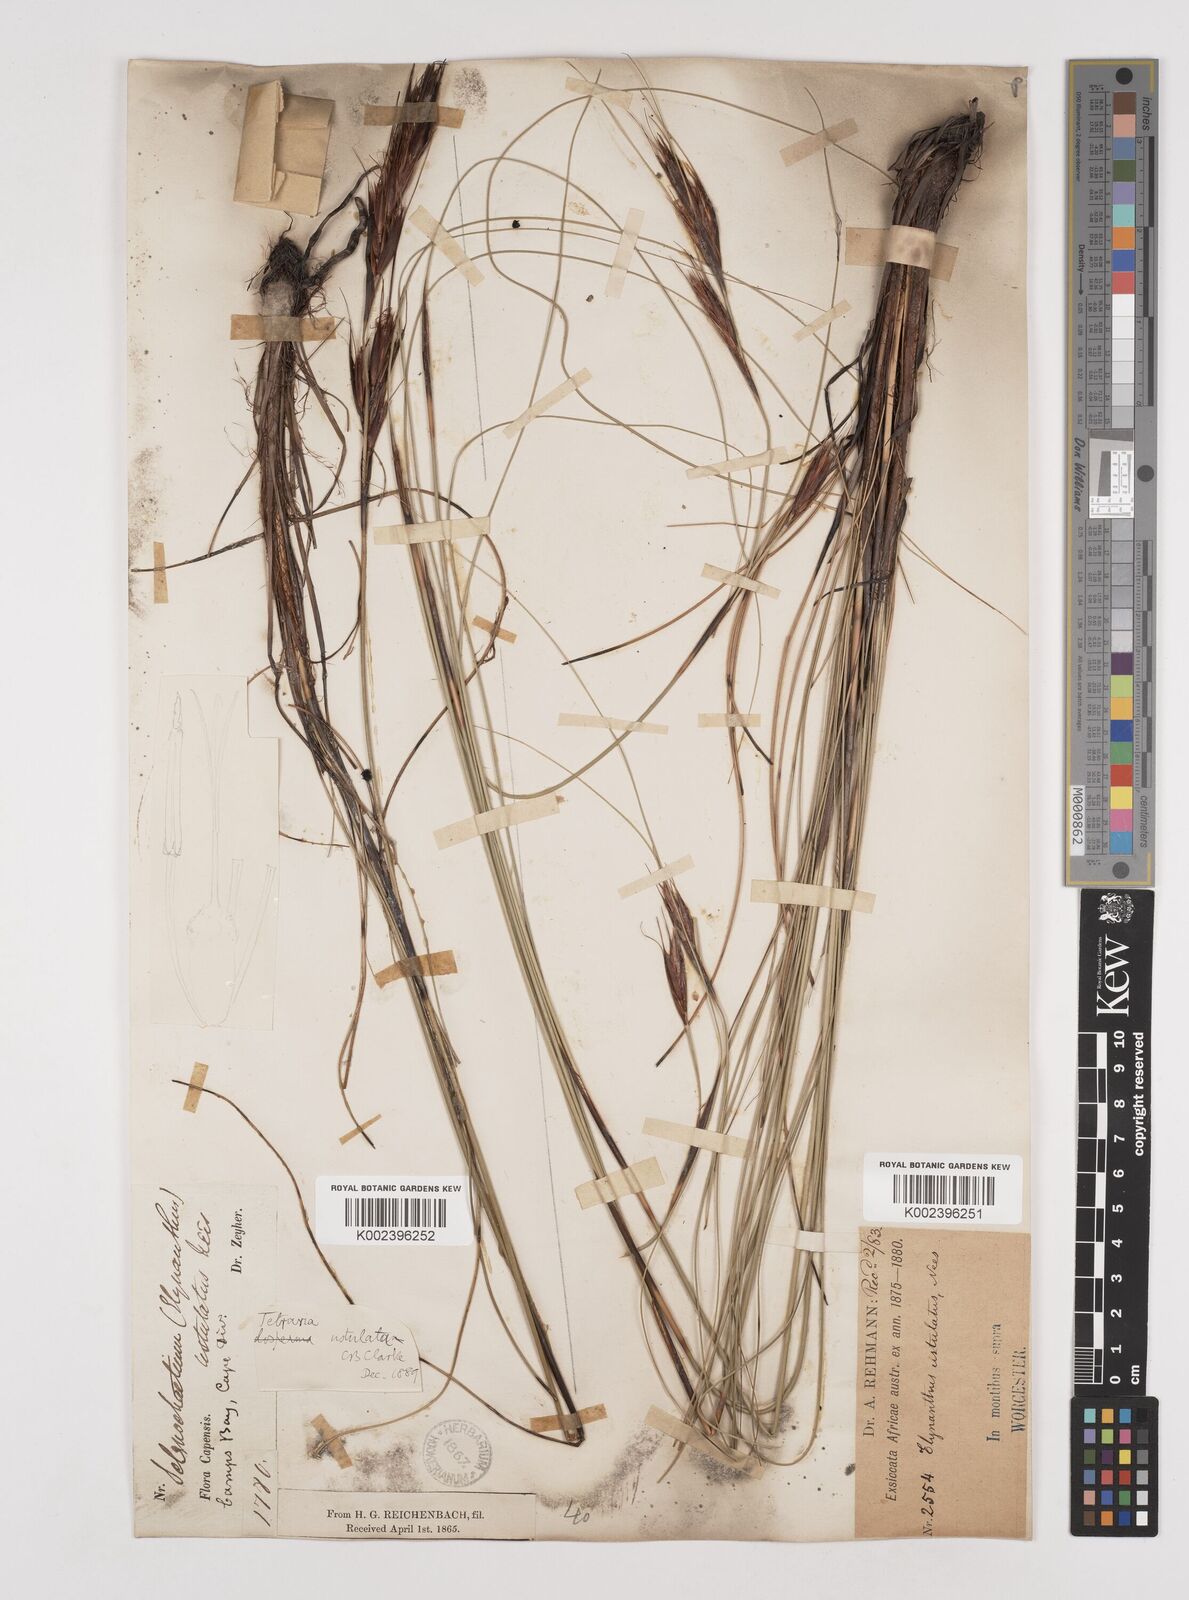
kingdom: Plantae
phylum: Tracheophyta
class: Liliopsida
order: Poales
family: Cyperaceae
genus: Tetraria
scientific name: Tetraria ustulata
